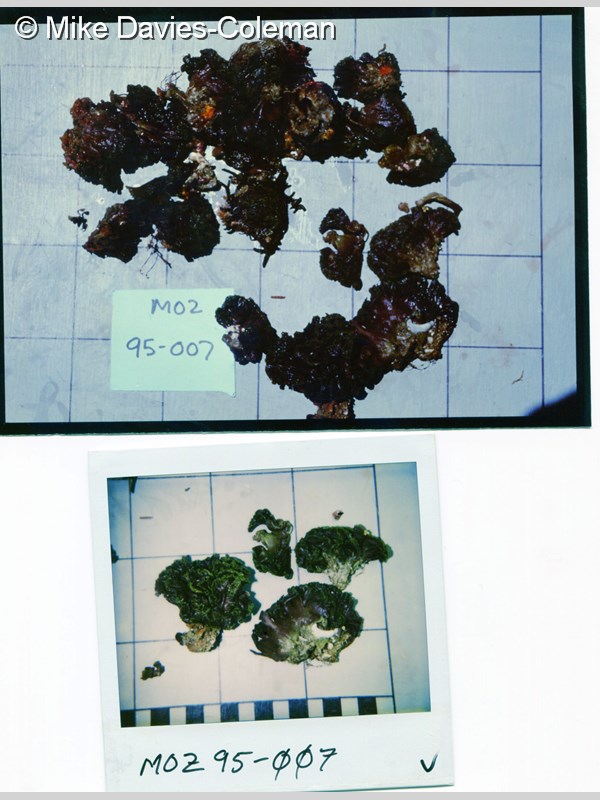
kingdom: Animalia
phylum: Porifera
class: Calcarea
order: Leucosolenida
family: Grantiidae
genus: Amphiute
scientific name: Amphiute
